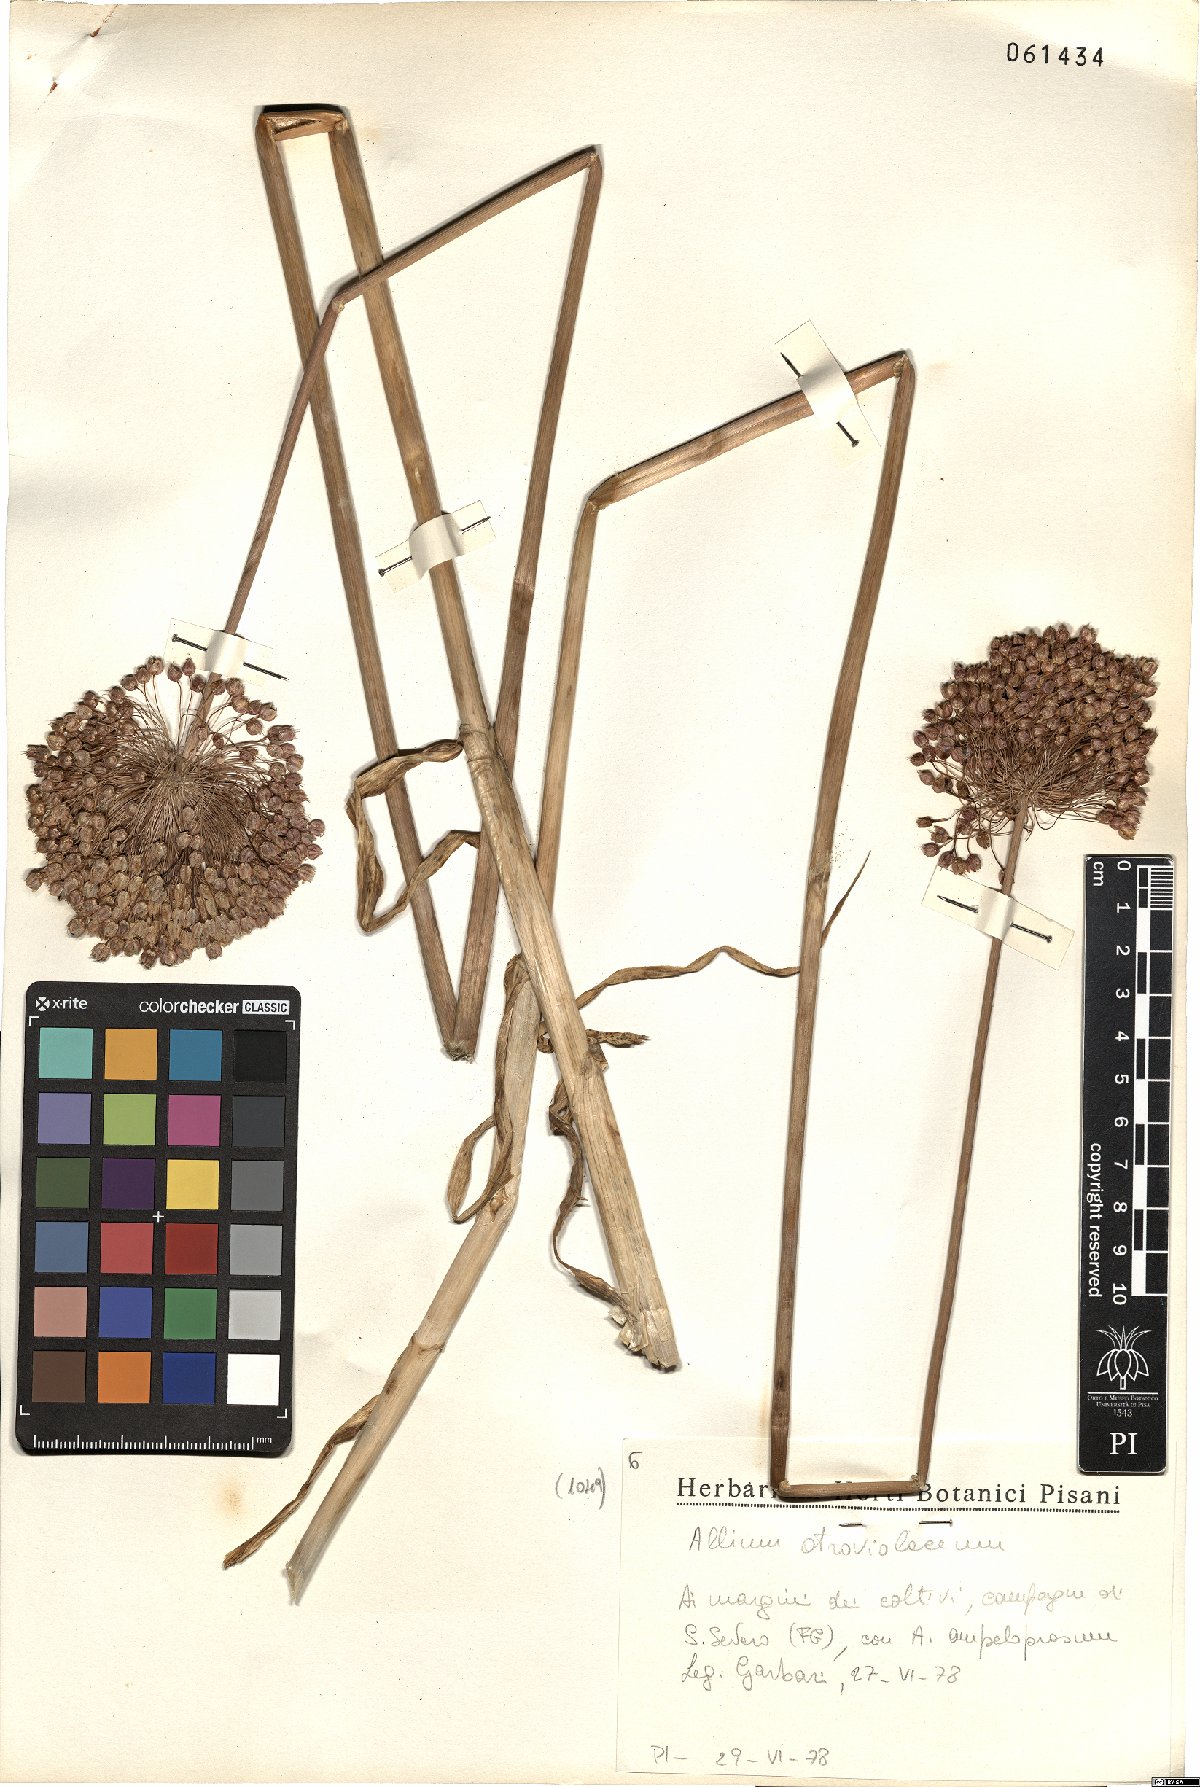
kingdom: Plantae
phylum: Tracheophyta
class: Liliopsida
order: Asparagales
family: Amaryllidaceae
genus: Allium
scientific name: Allium atroviolaceum
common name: Broadleaf wild leek
